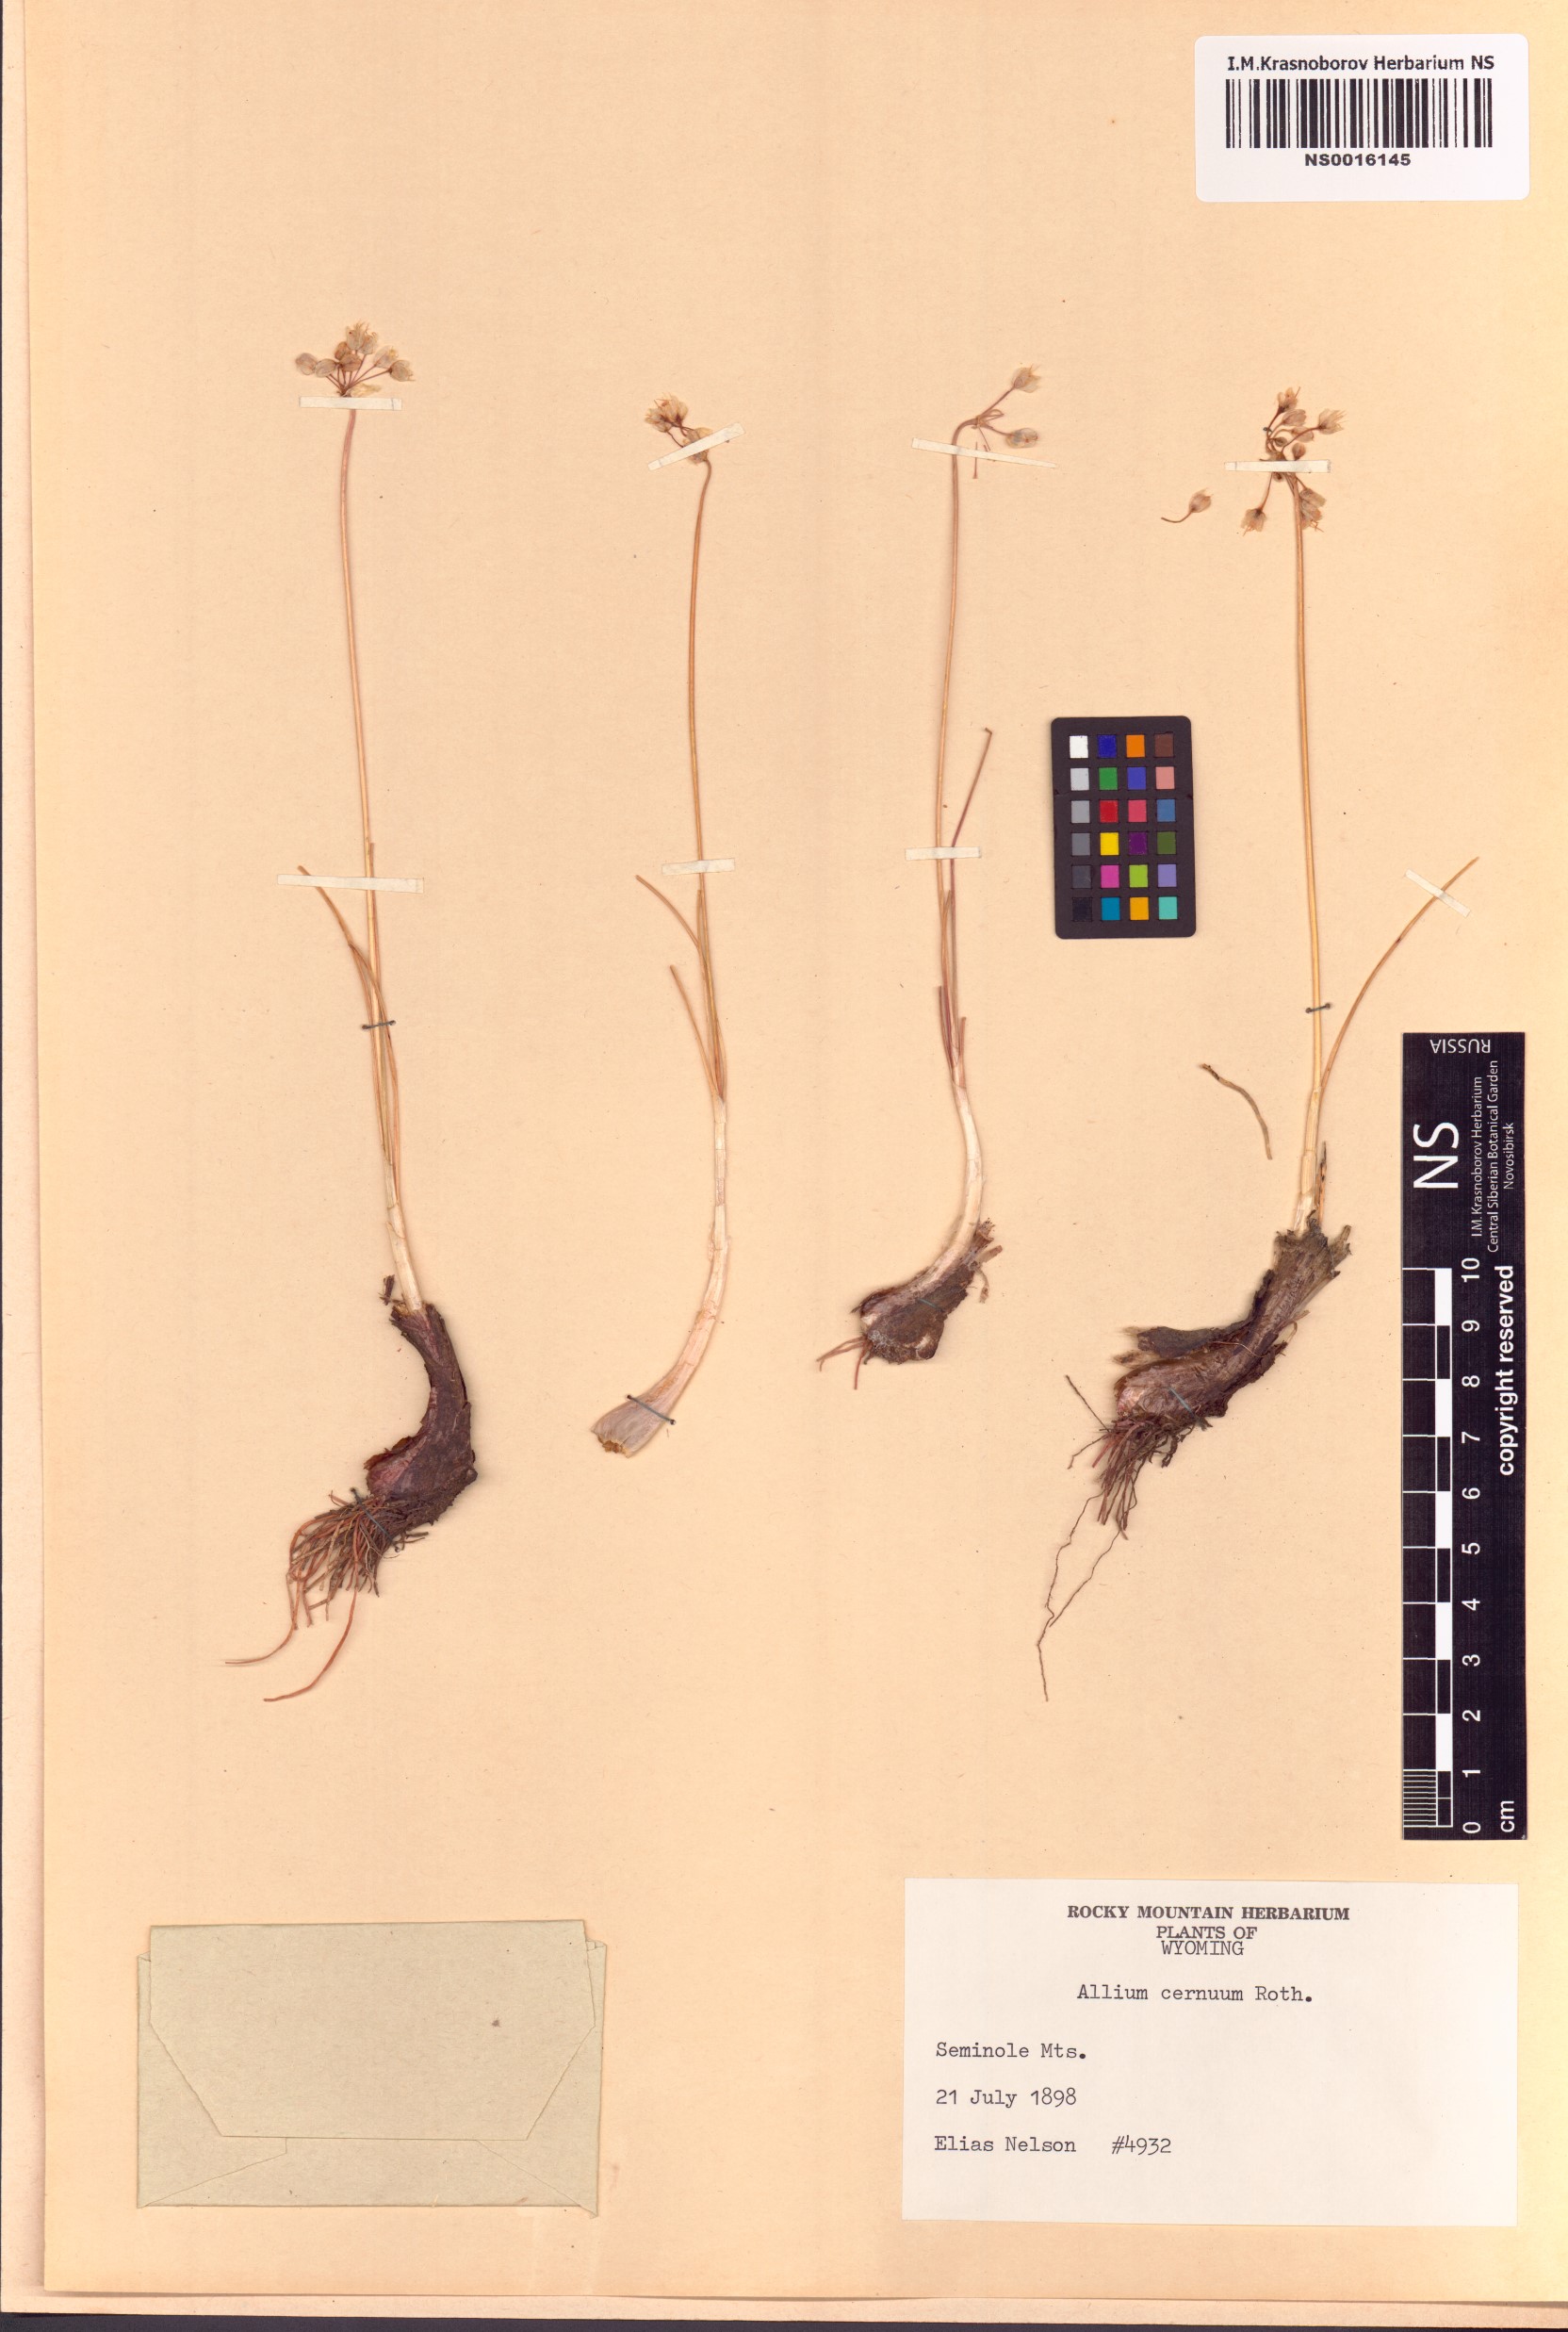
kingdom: Plantae
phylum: Tracheophyta
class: Liliopsida
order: Asparagales
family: Amaryllidaceae
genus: Allium
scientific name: Allium cernuum
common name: Nodding onion
